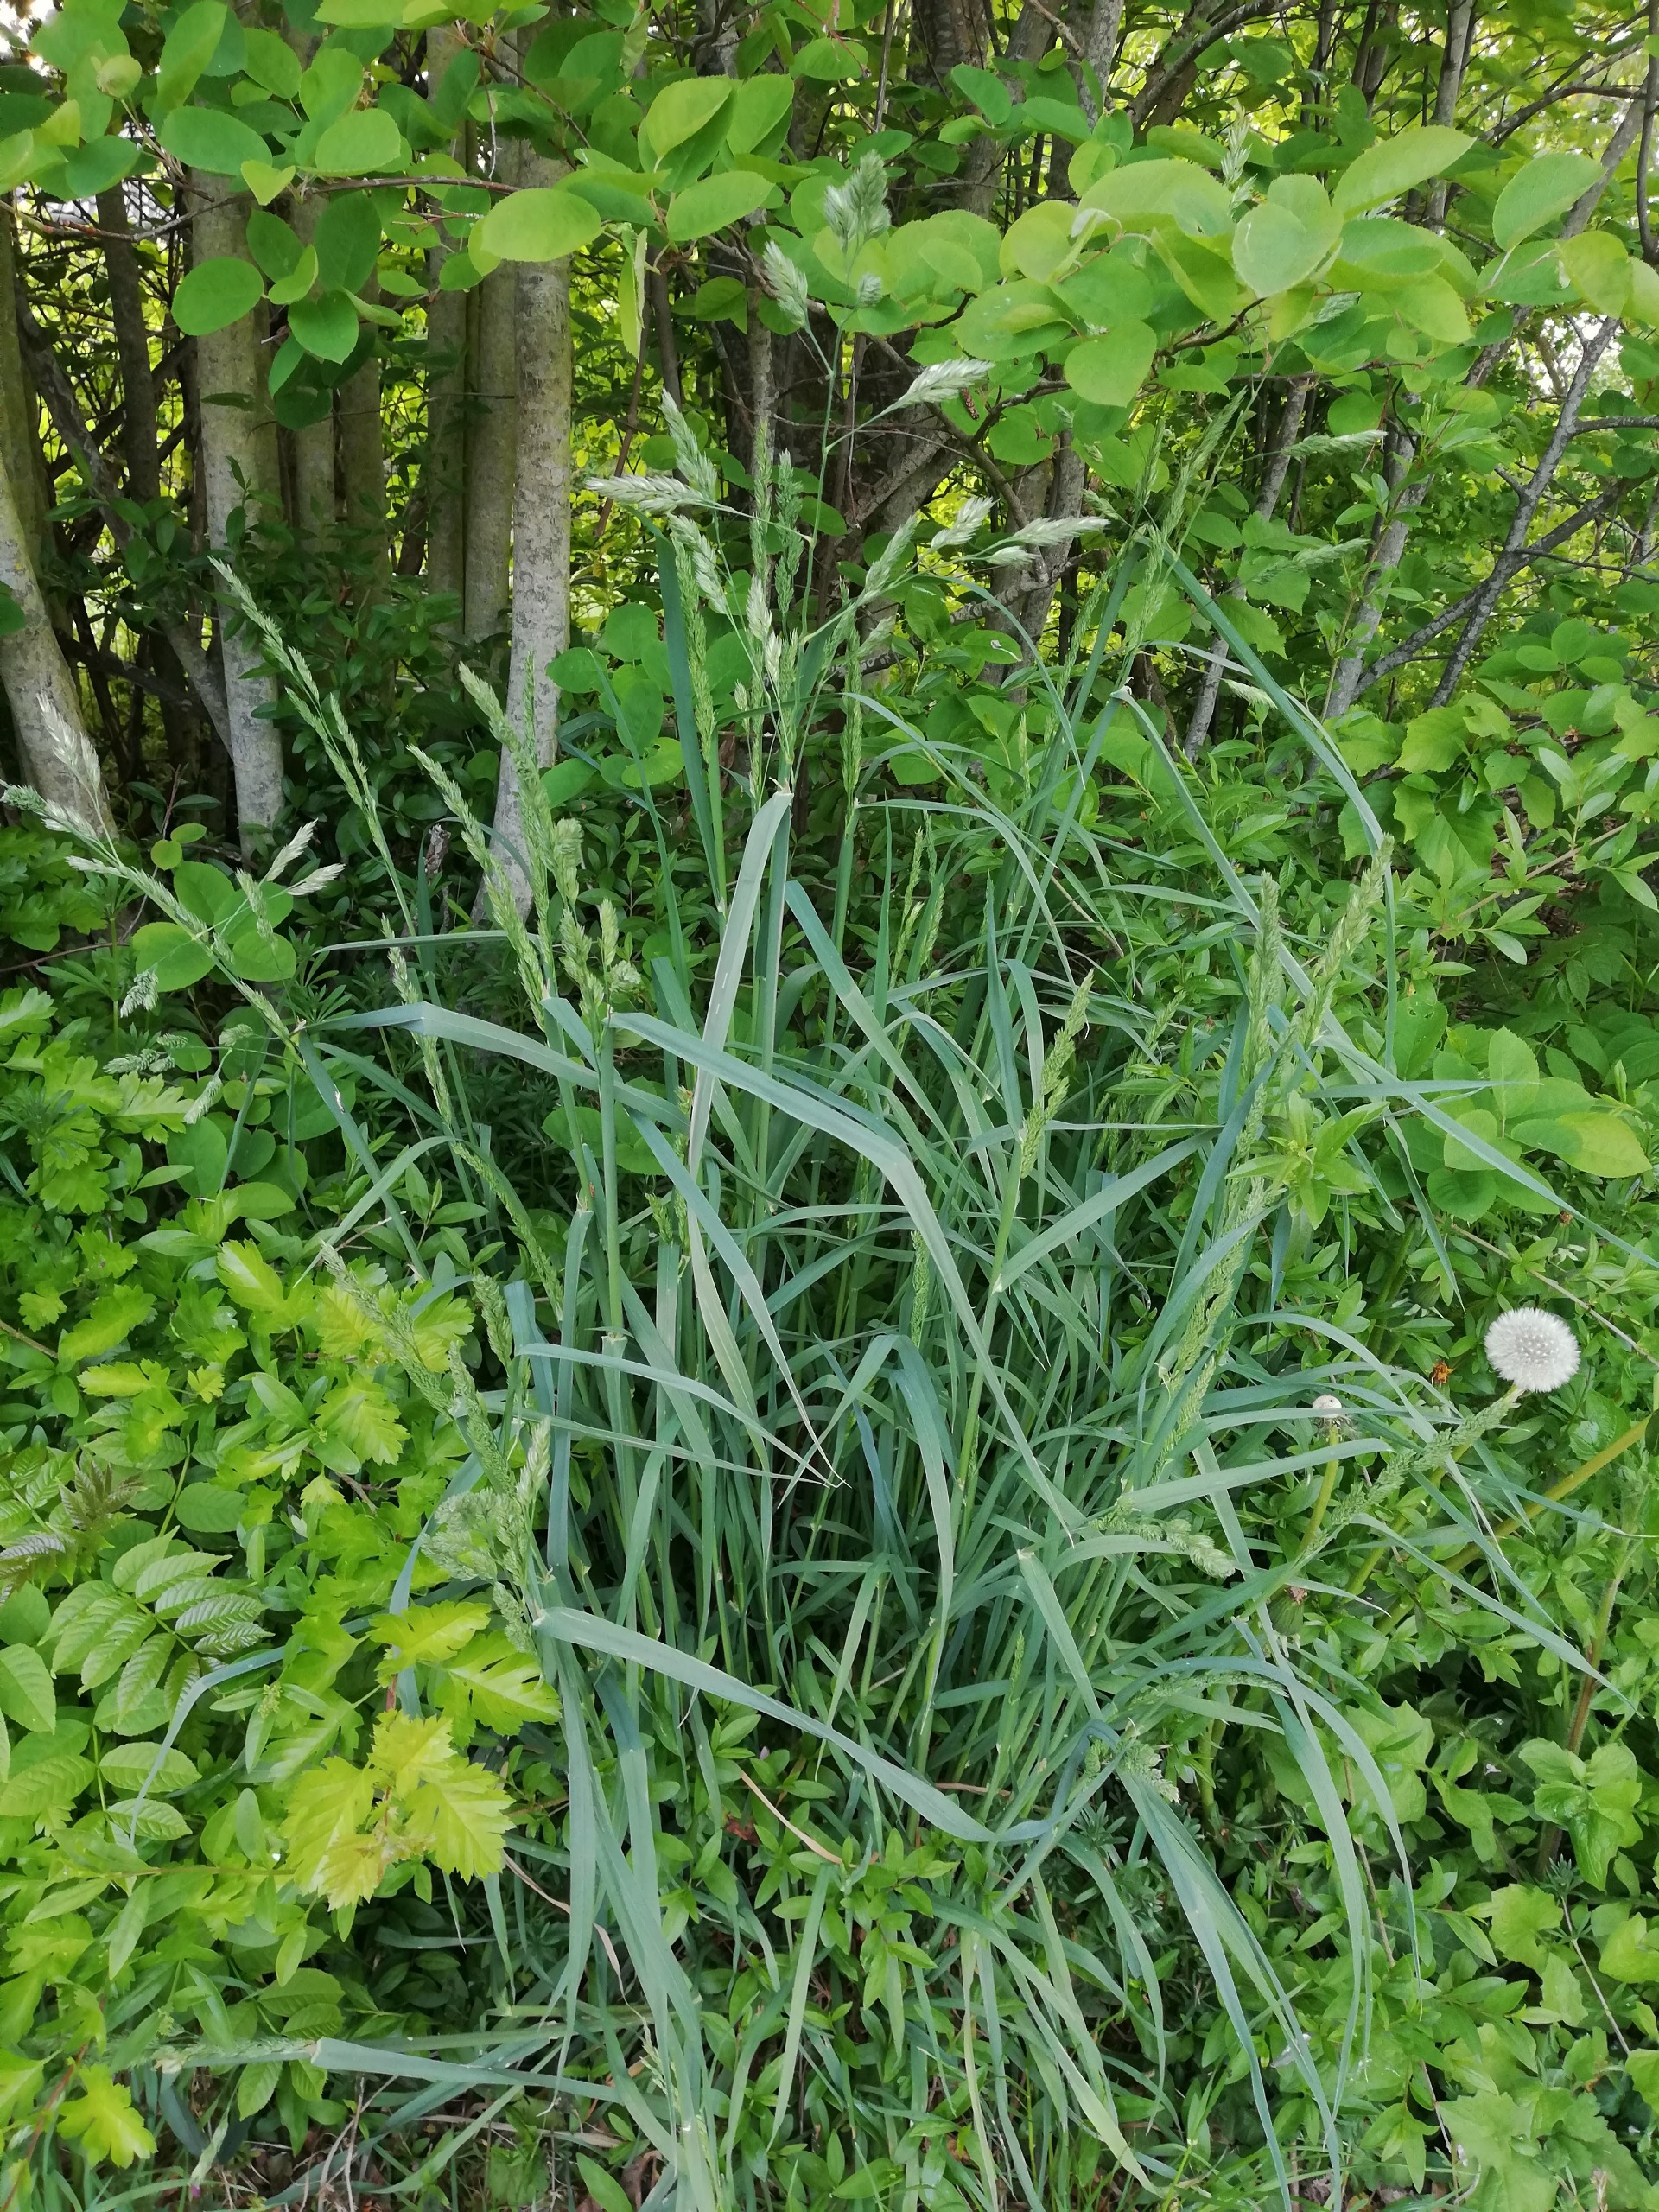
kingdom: Plantae
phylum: Tracheophyta
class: Liliopsida
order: Poales
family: Poaceae
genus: Dactylis
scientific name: Dactylis glomerata
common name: Almindelig hundegræs
